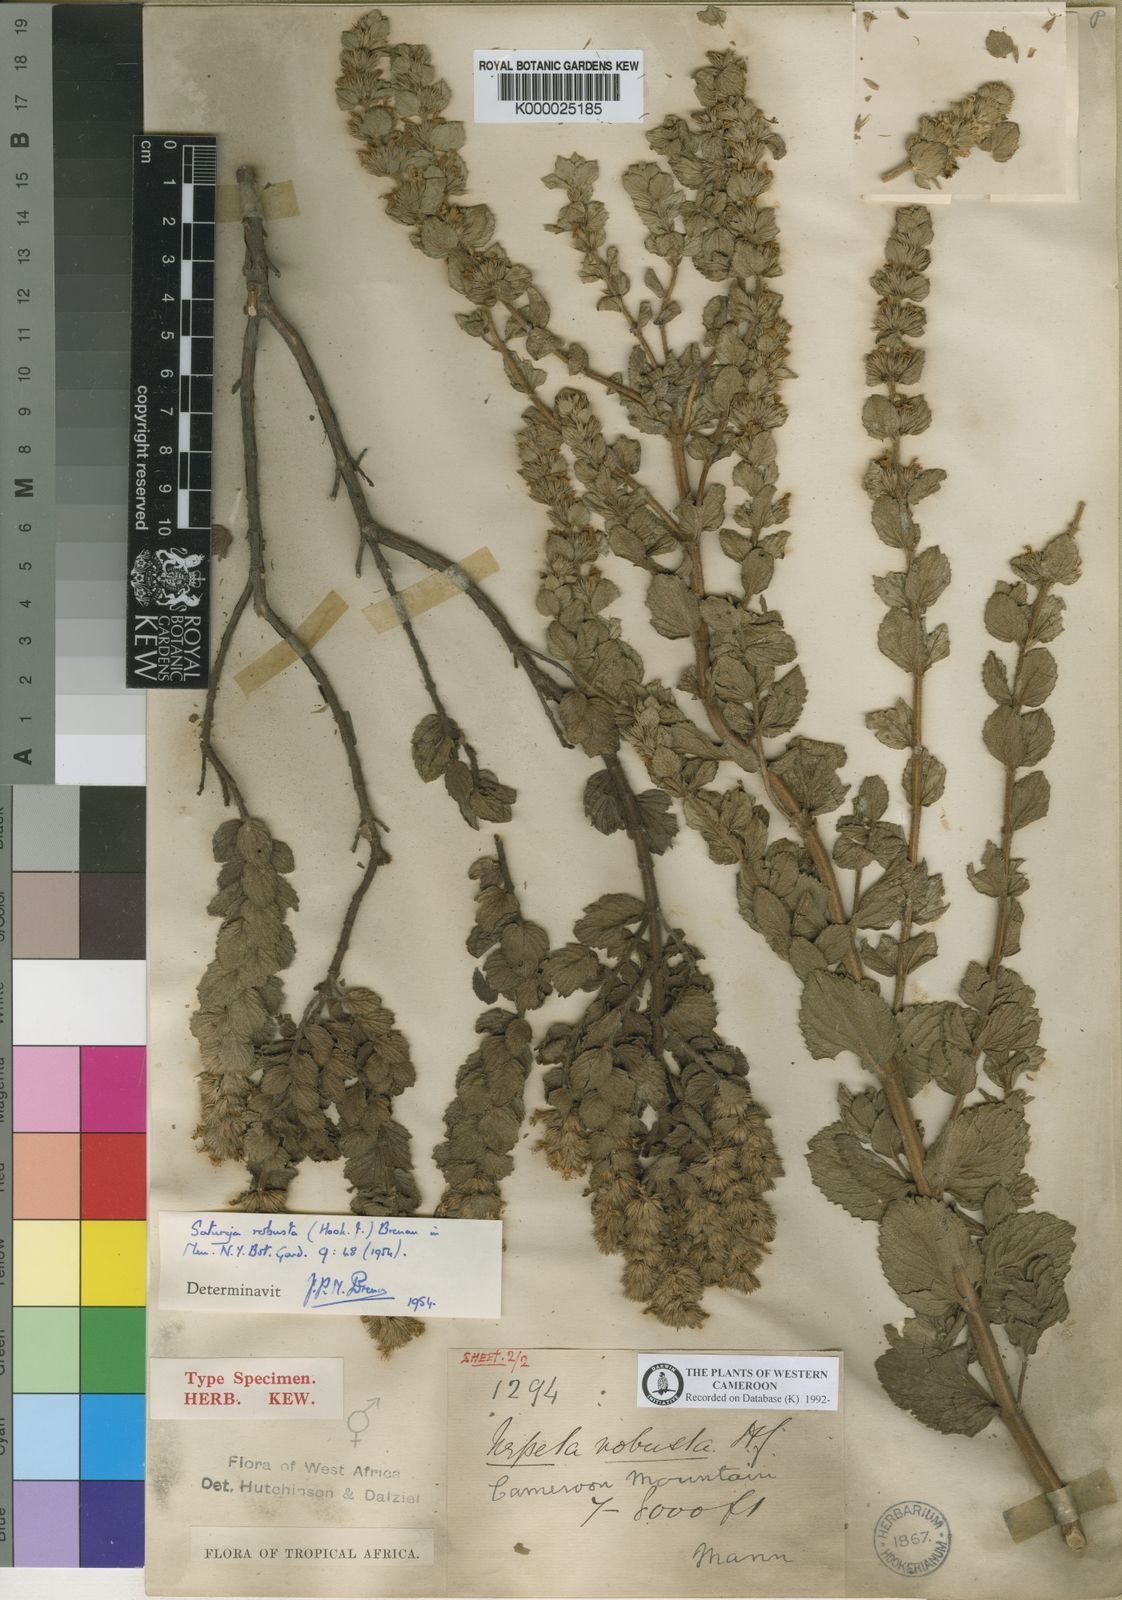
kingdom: Plantae
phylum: Tracheophyta
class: Magnoliopsida
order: Lamiales
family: Lamiaceae
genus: Clinopodium
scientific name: Clinopodium robustum
